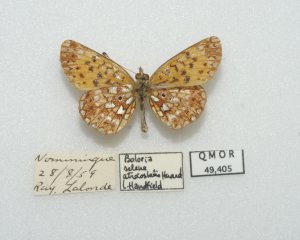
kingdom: Animalia
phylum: Arthropoda
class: Insecta
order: Lepidoptera
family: Nymphalidae
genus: Boloria
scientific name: Boloria selene
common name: Silver-bordered Fritillary
